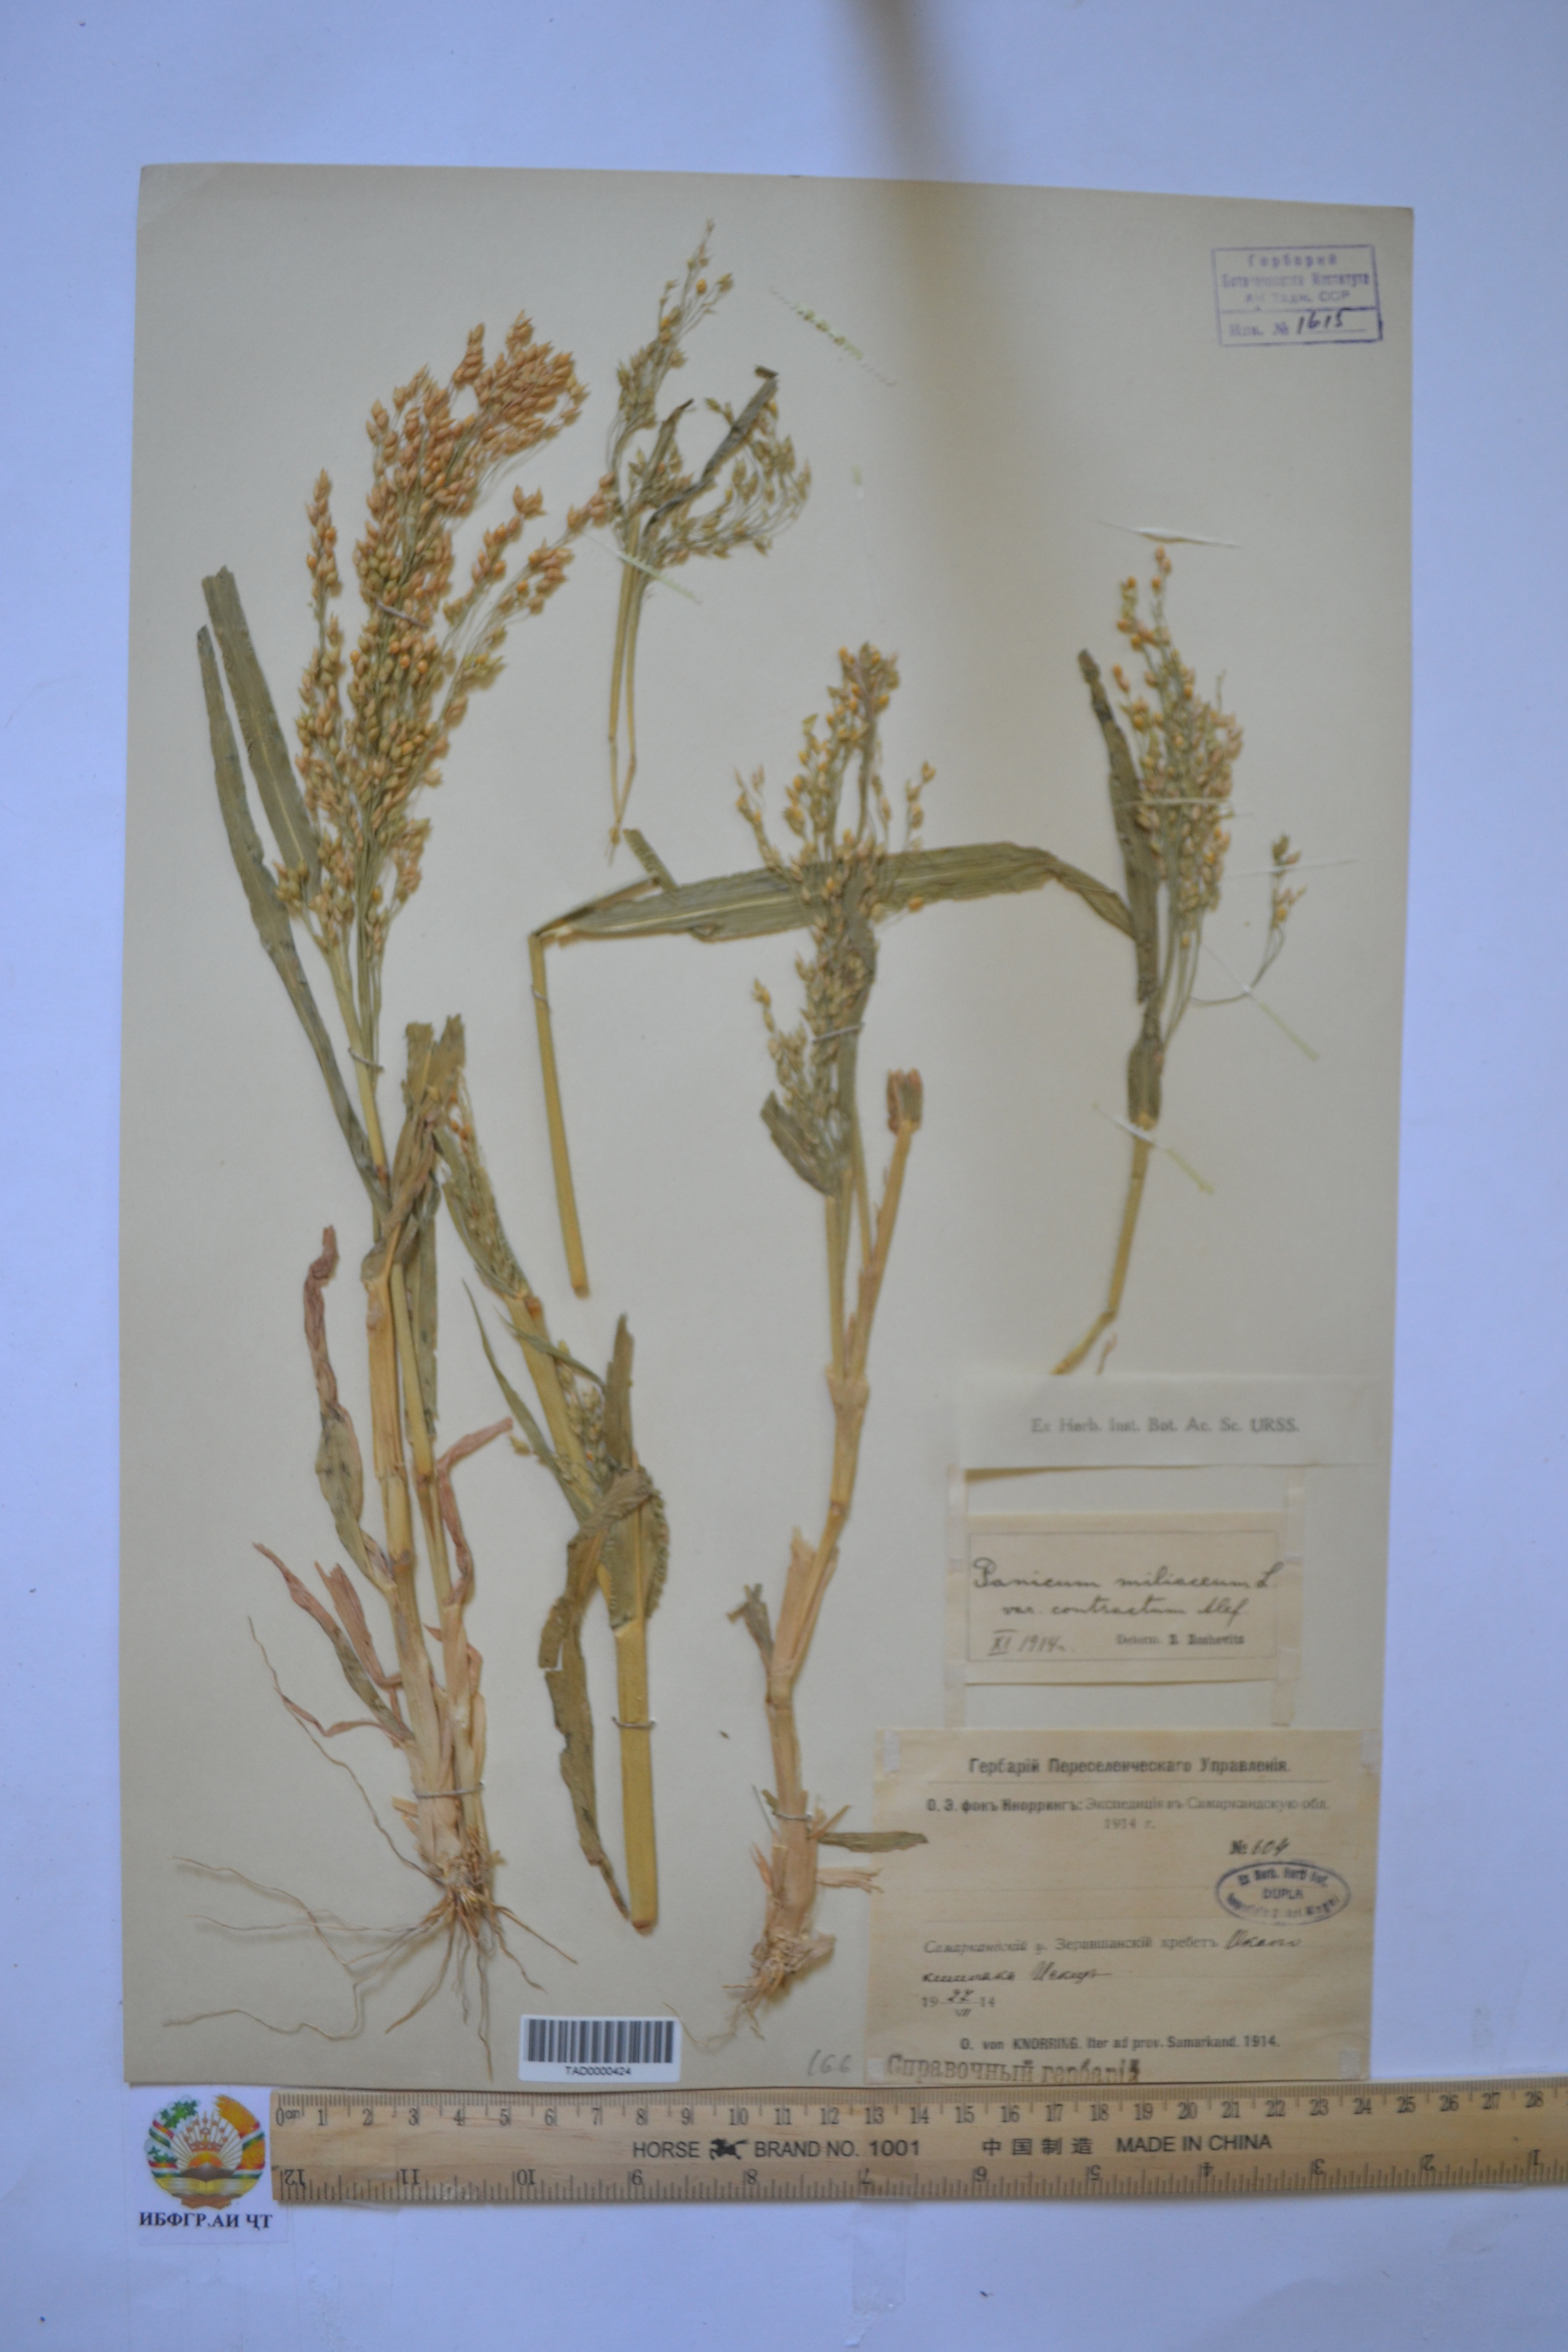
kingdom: Plantae
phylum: Tracheophyta
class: Liliopsida
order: Poales
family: Poaceae
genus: Panicum
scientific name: Panicum miliaceum
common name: Common millet
